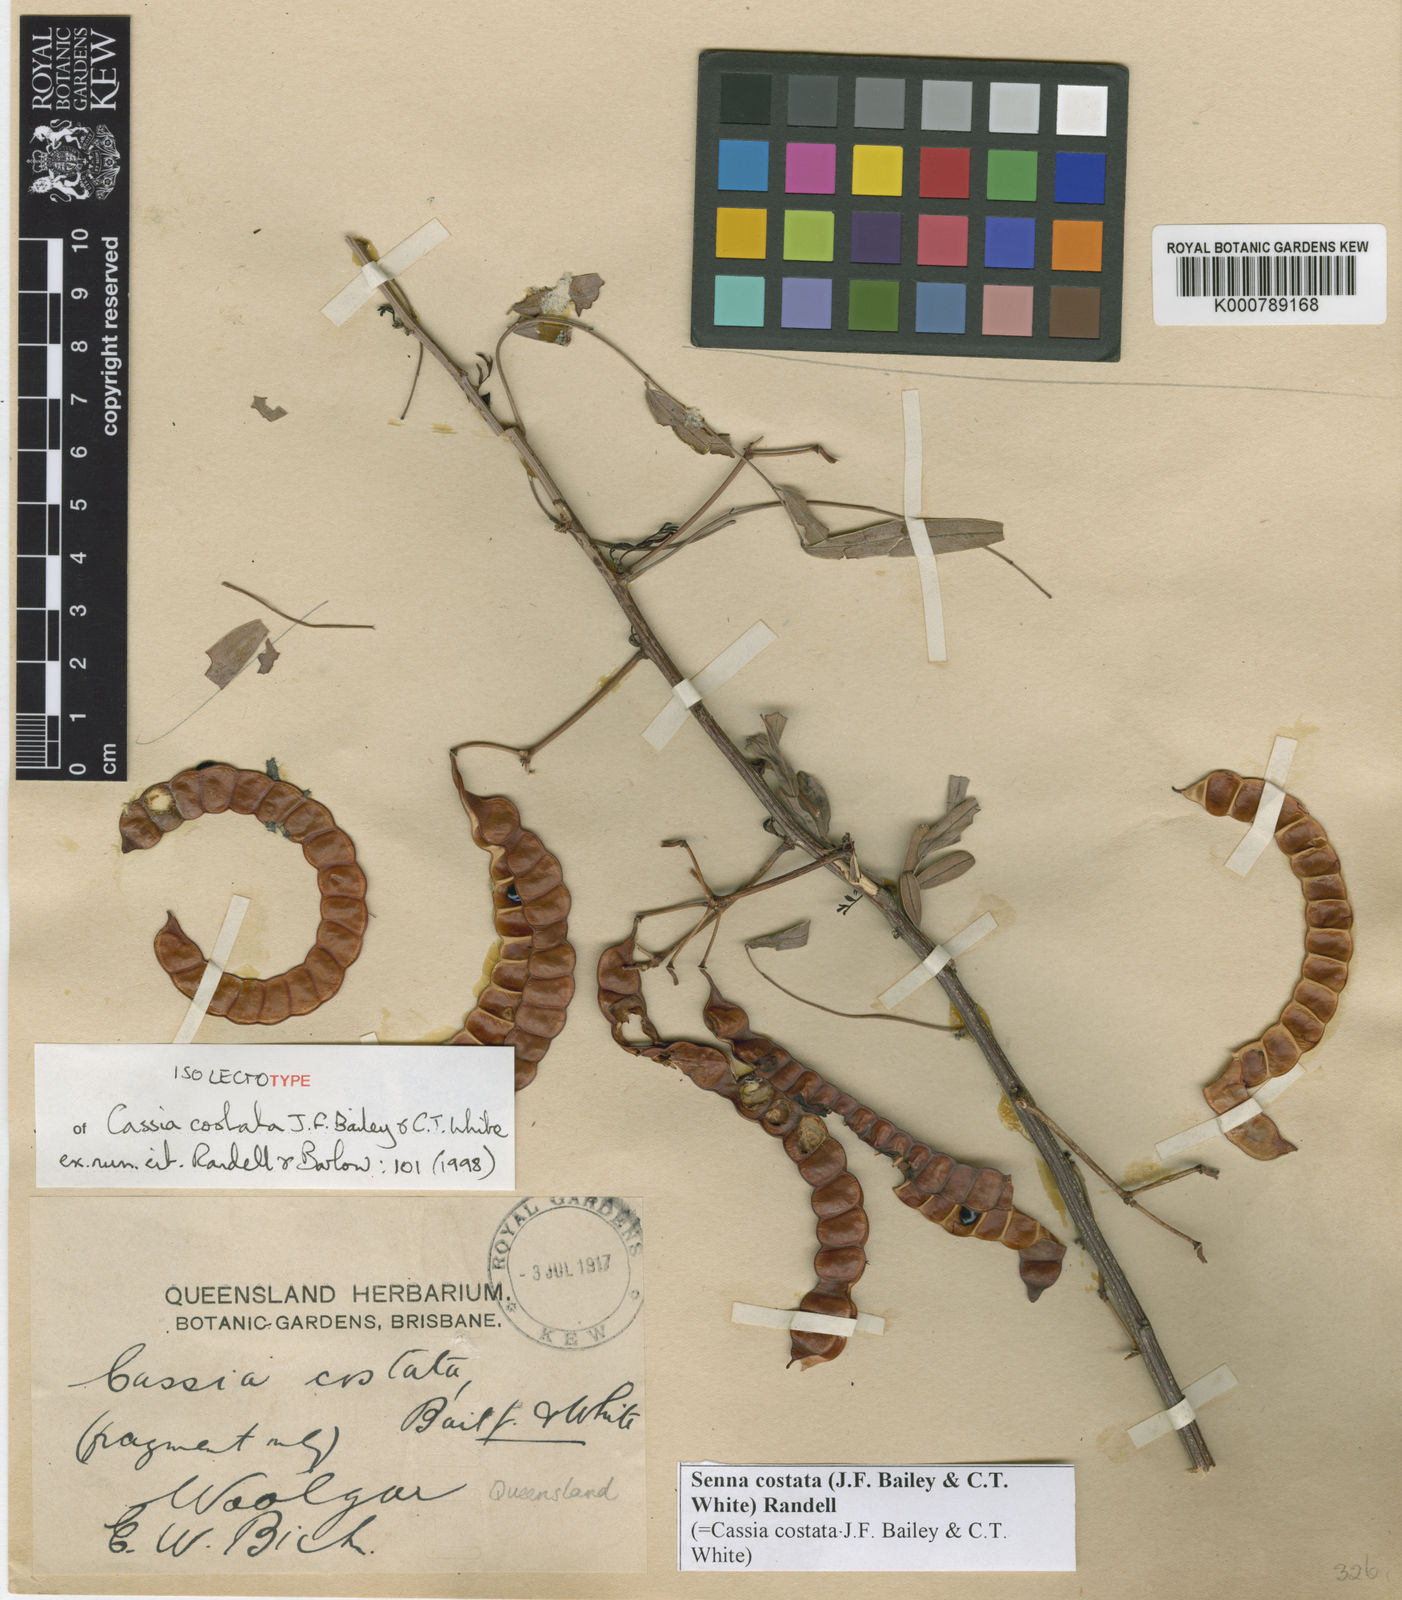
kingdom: Plantae
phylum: Tracheophyta
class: Magnoliopsida
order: Fabales
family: Fabaceae
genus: Senna
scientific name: Senna costata
